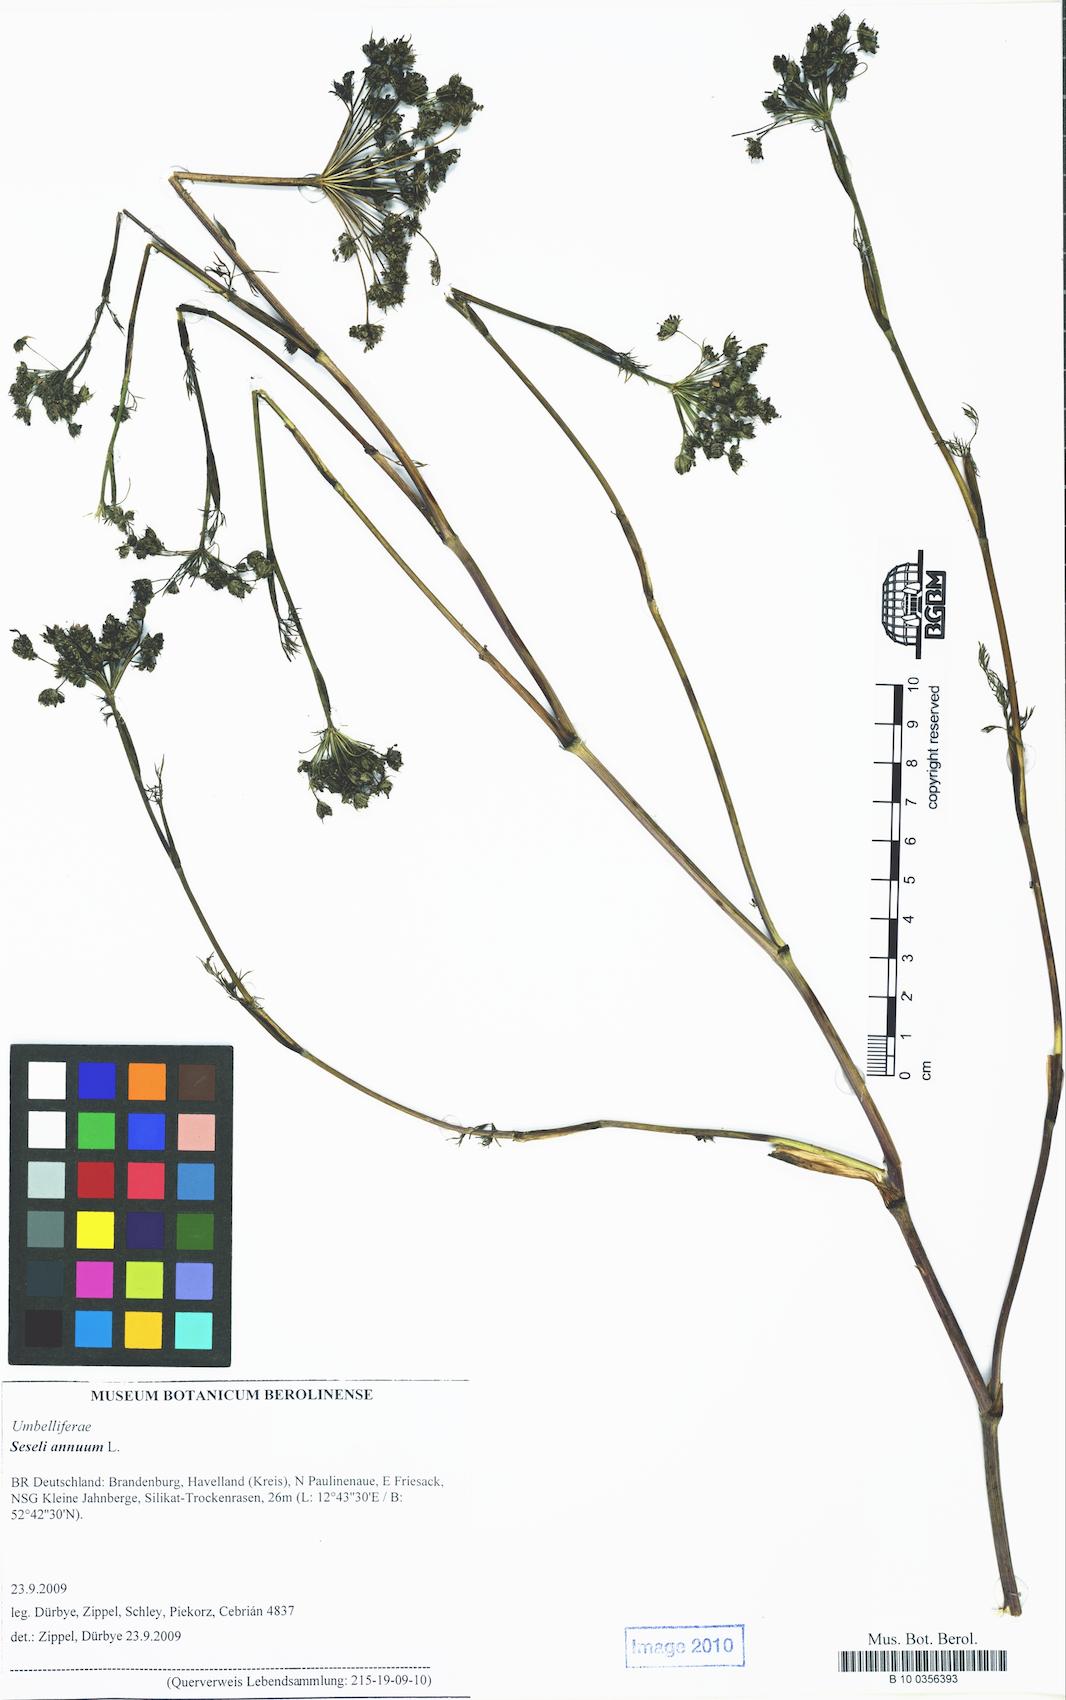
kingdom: Plantae
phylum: Tracheophyta
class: Magnoliopsida
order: Apiales
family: Apiaceae
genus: Seseli
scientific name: Seseli annuum
